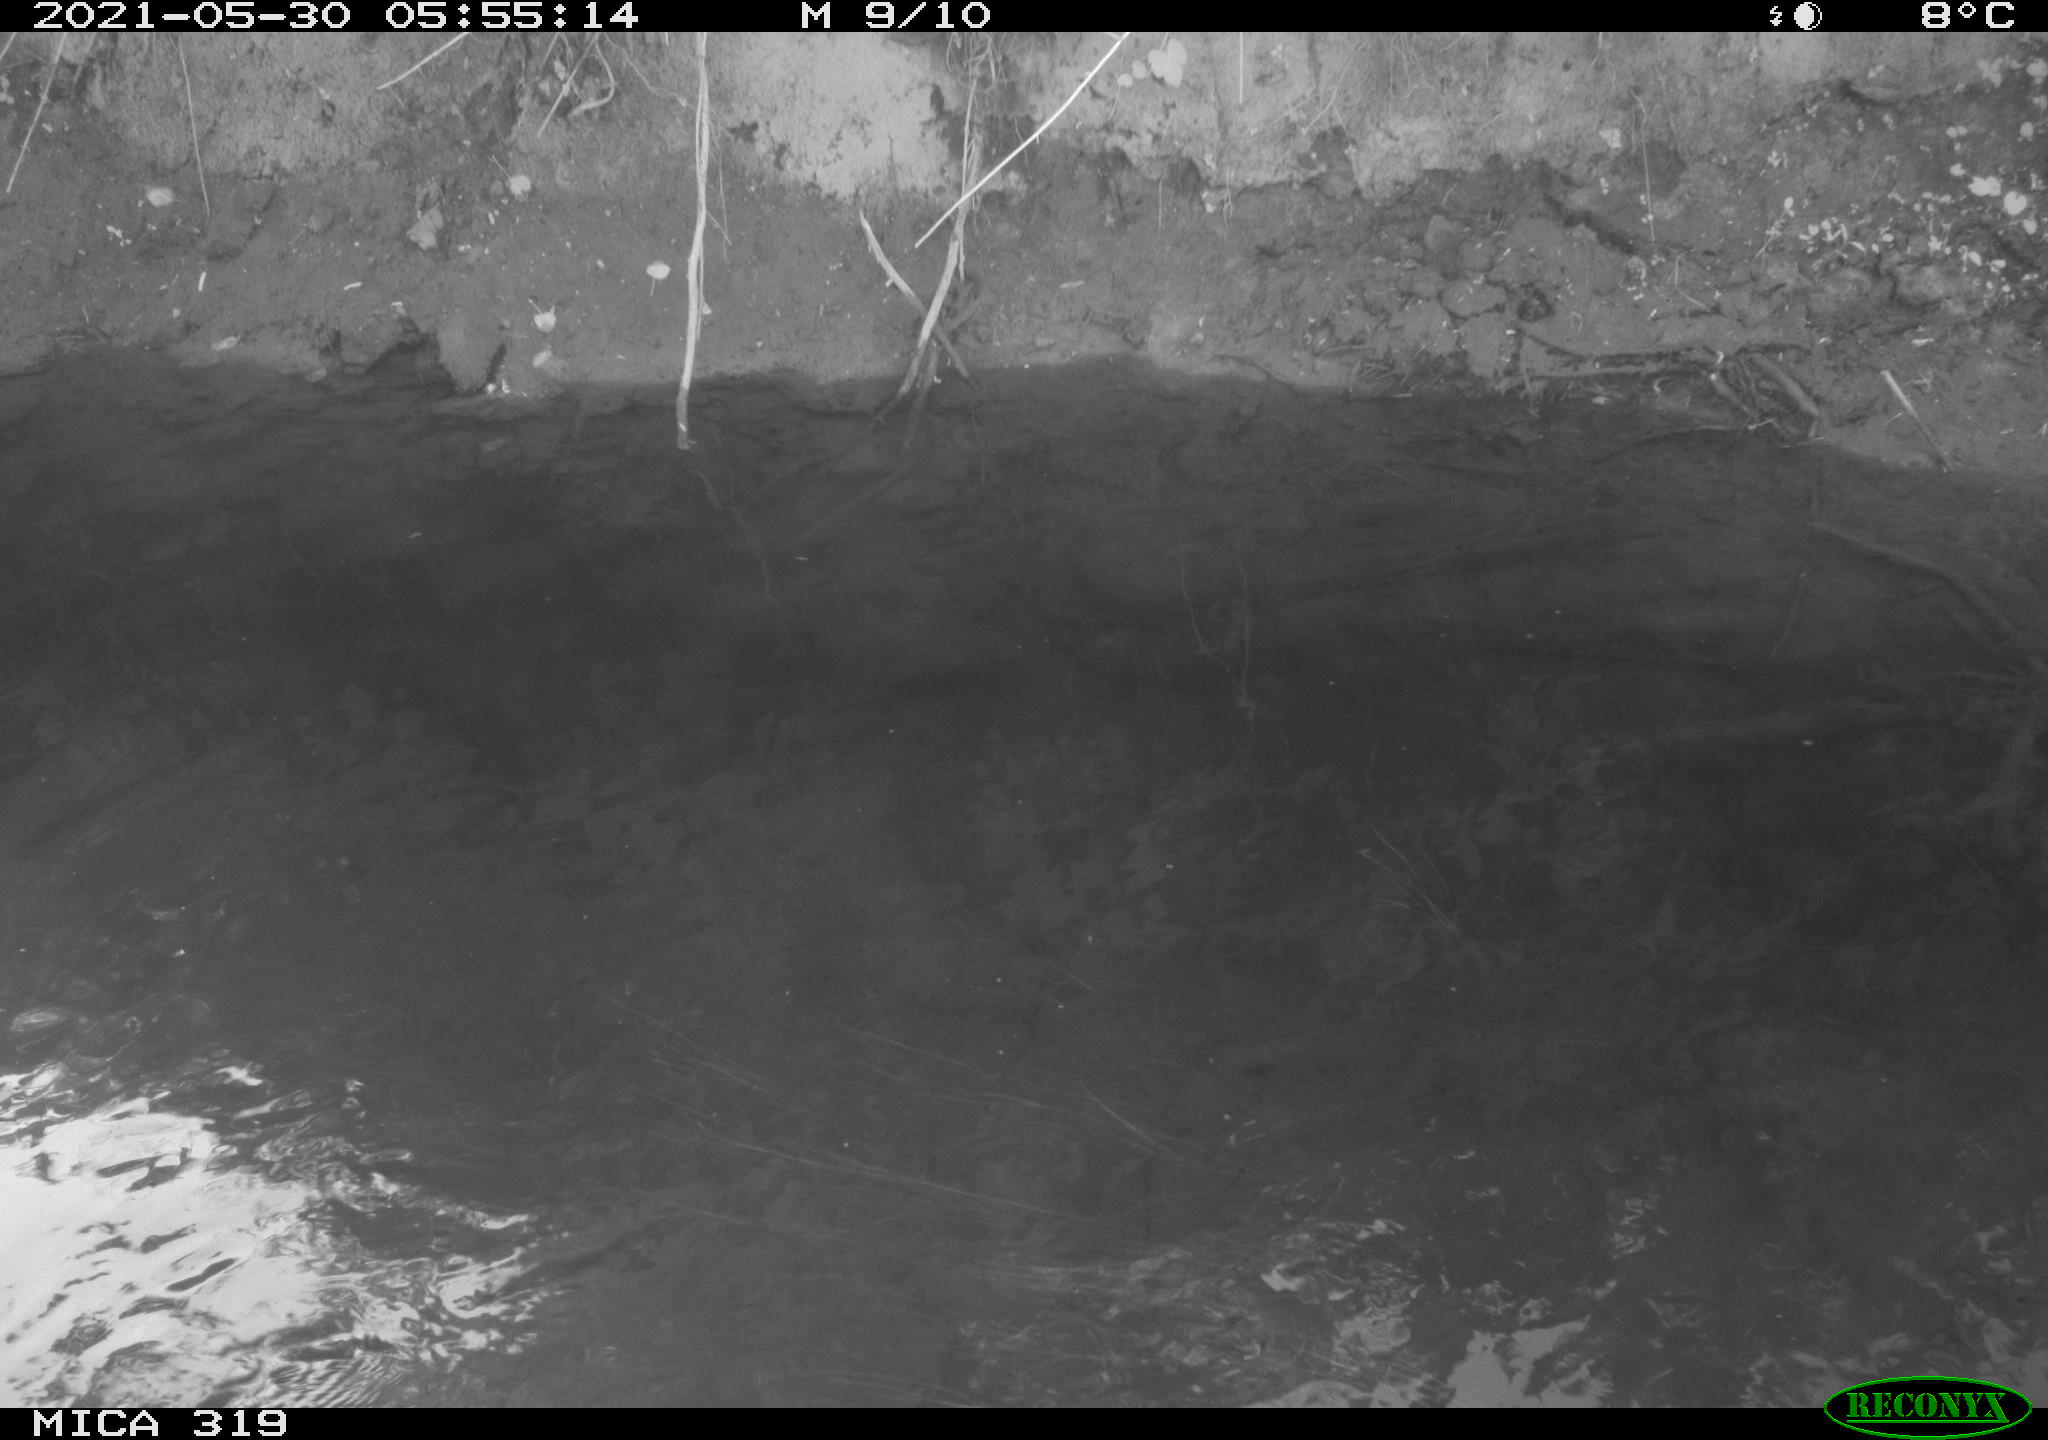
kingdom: Animalia
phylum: Chordata
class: Aves
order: Anseriformes
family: Anatidae
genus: Anas
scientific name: Anas platyrhynchos
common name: Mallard
